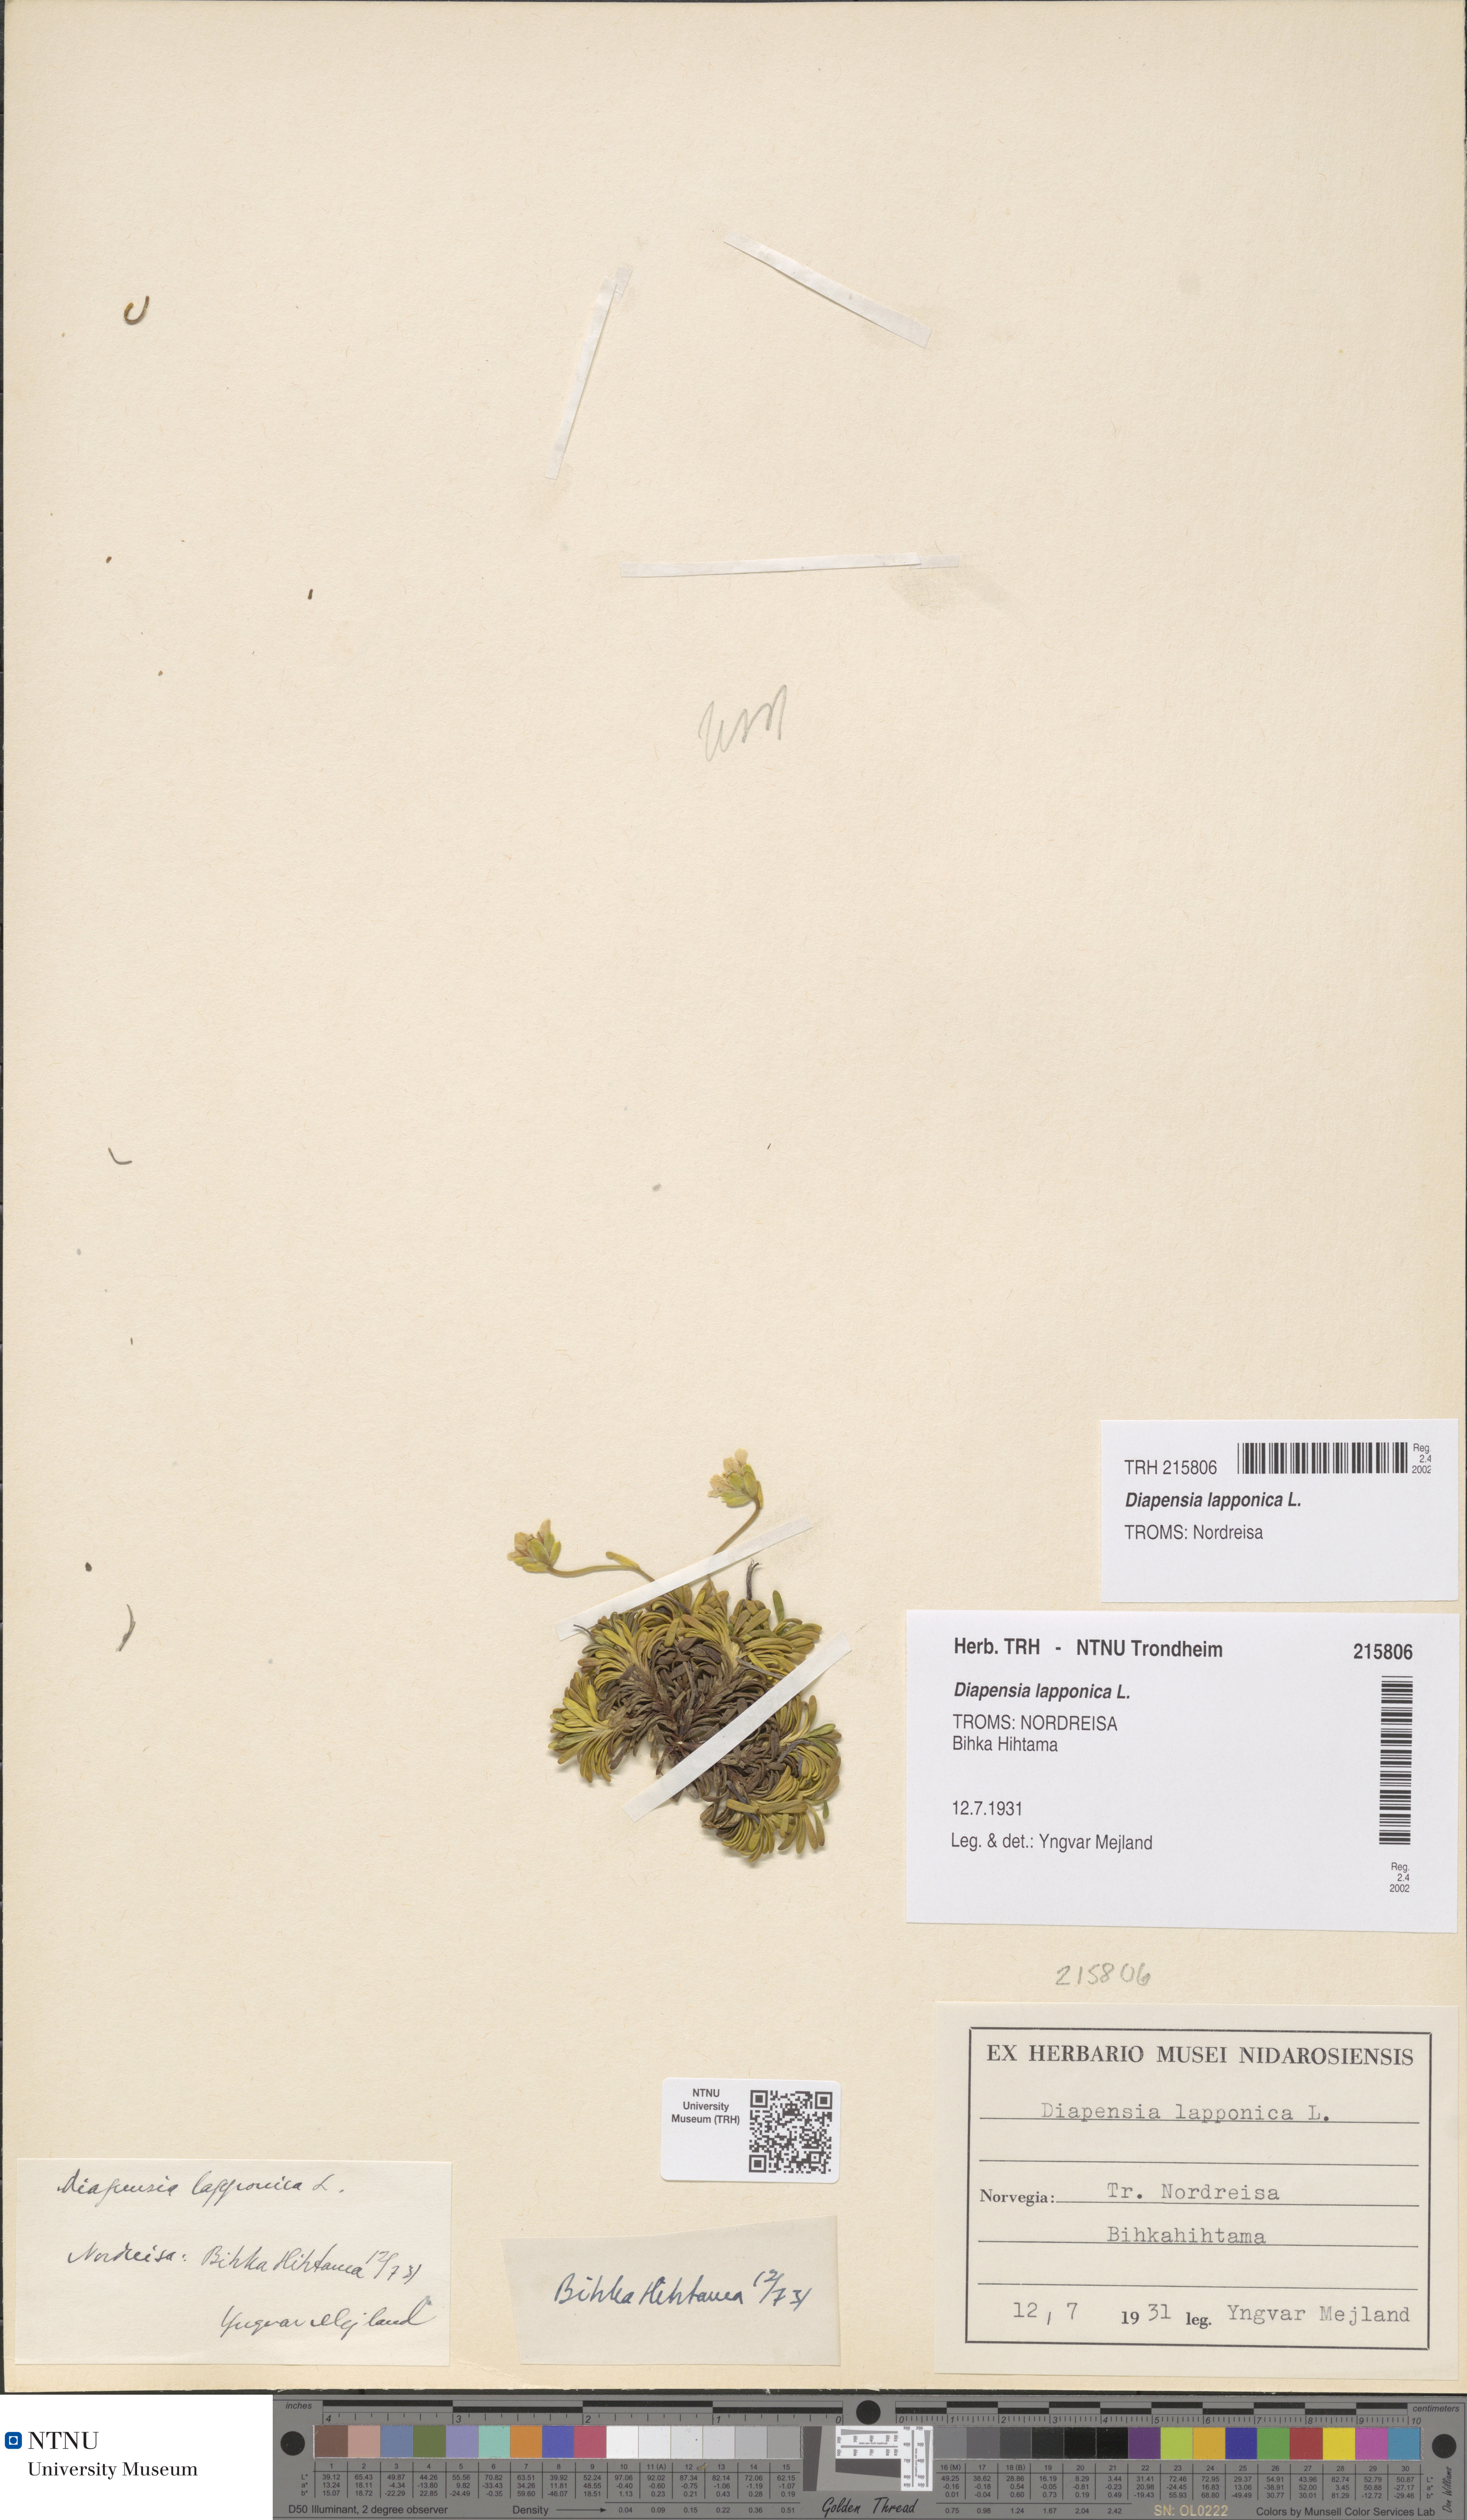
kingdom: Plantae
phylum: Tracheophyta
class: Magnoliopsida
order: Ericales
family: Diapensiaceae
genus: Diapensia
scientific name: Diapensia lapponica
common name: Diapensia
